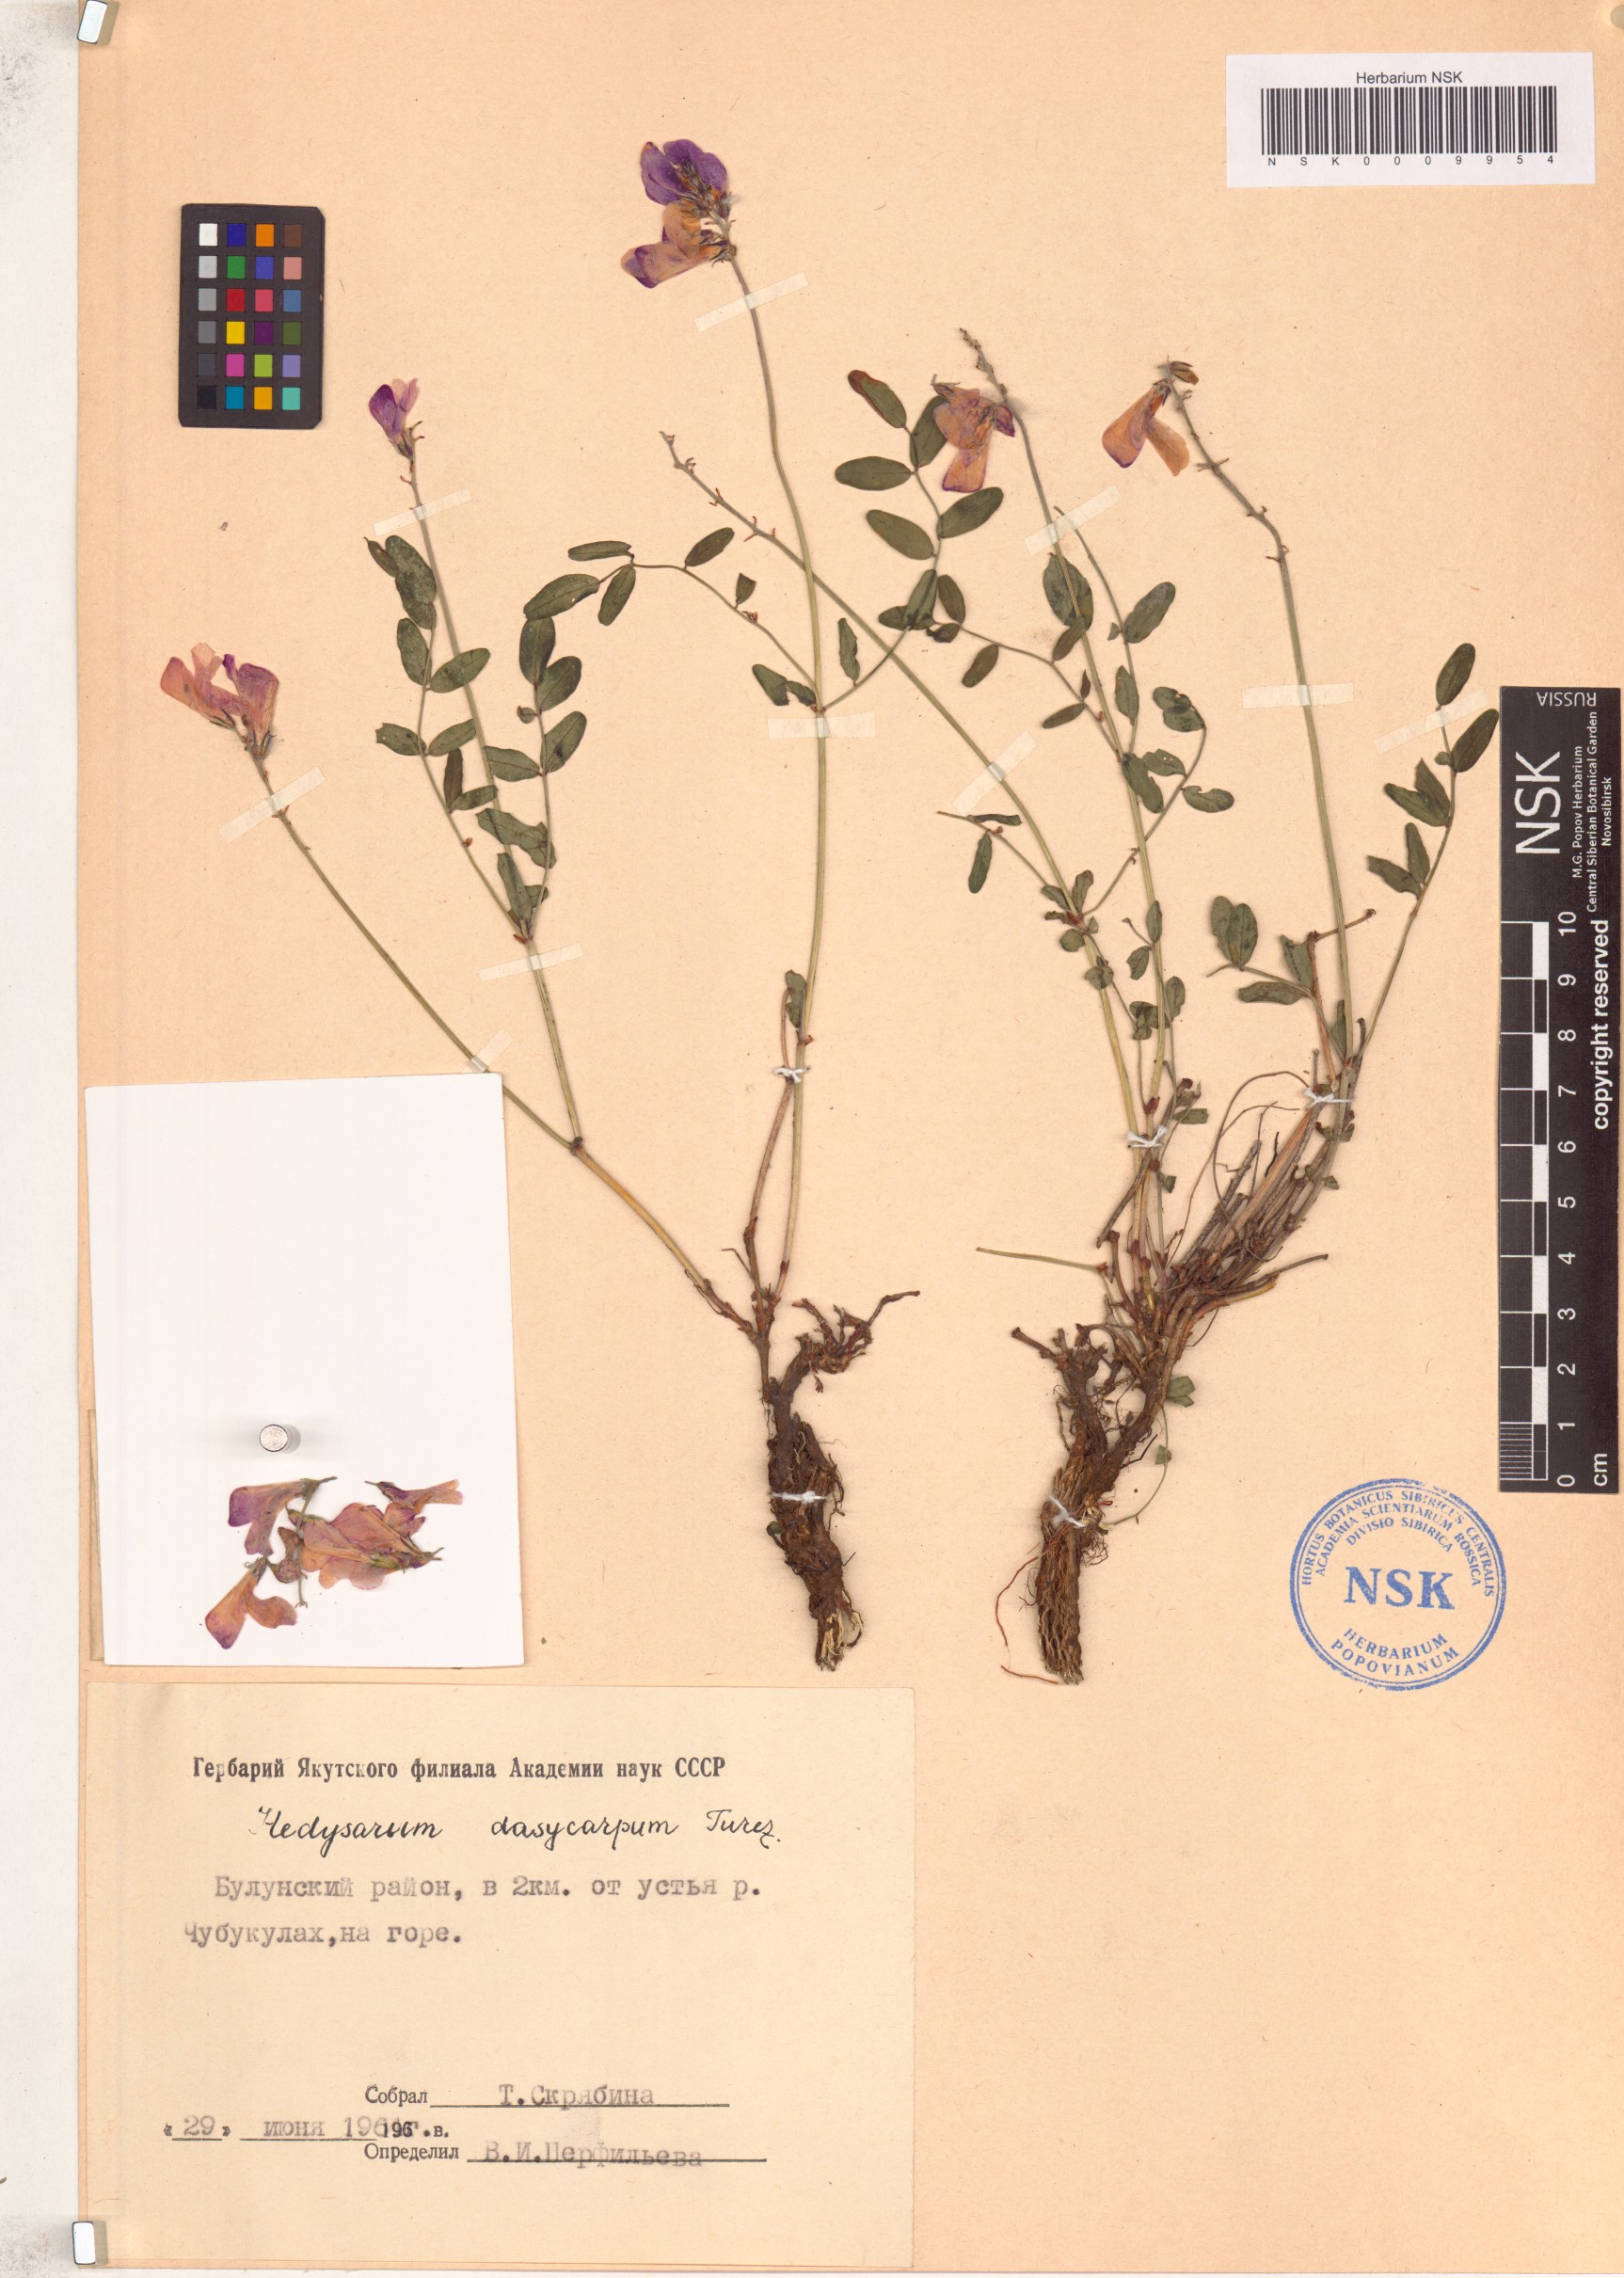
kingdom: Plantae
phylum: Tracheophyta
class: Magnoliopsida
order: Fabales
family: Fabaceae
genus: Hedysarum
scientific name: Hedysarum dasycarpum
